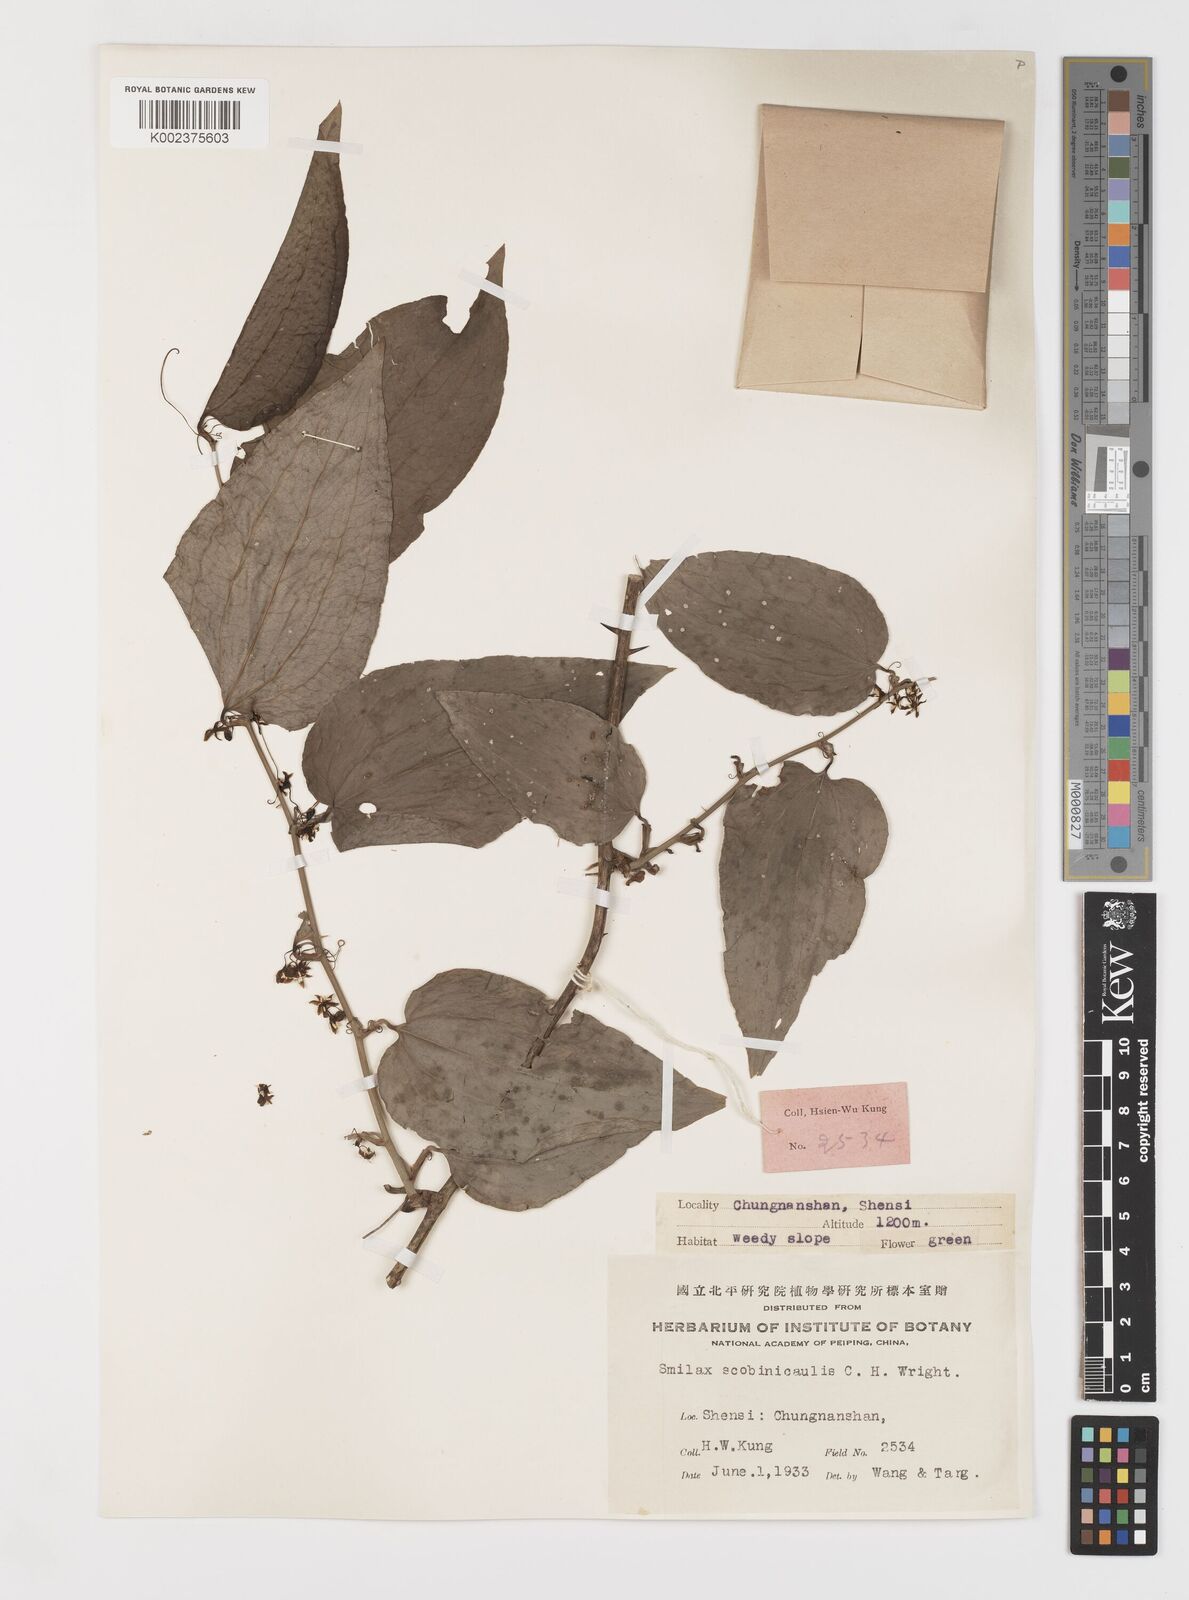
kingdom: Plantae
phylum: Tracheophyta
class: Liliopsida
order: Liliales
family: Smilacaceae
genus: Smilax
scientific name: Smilax scobinicaulis
